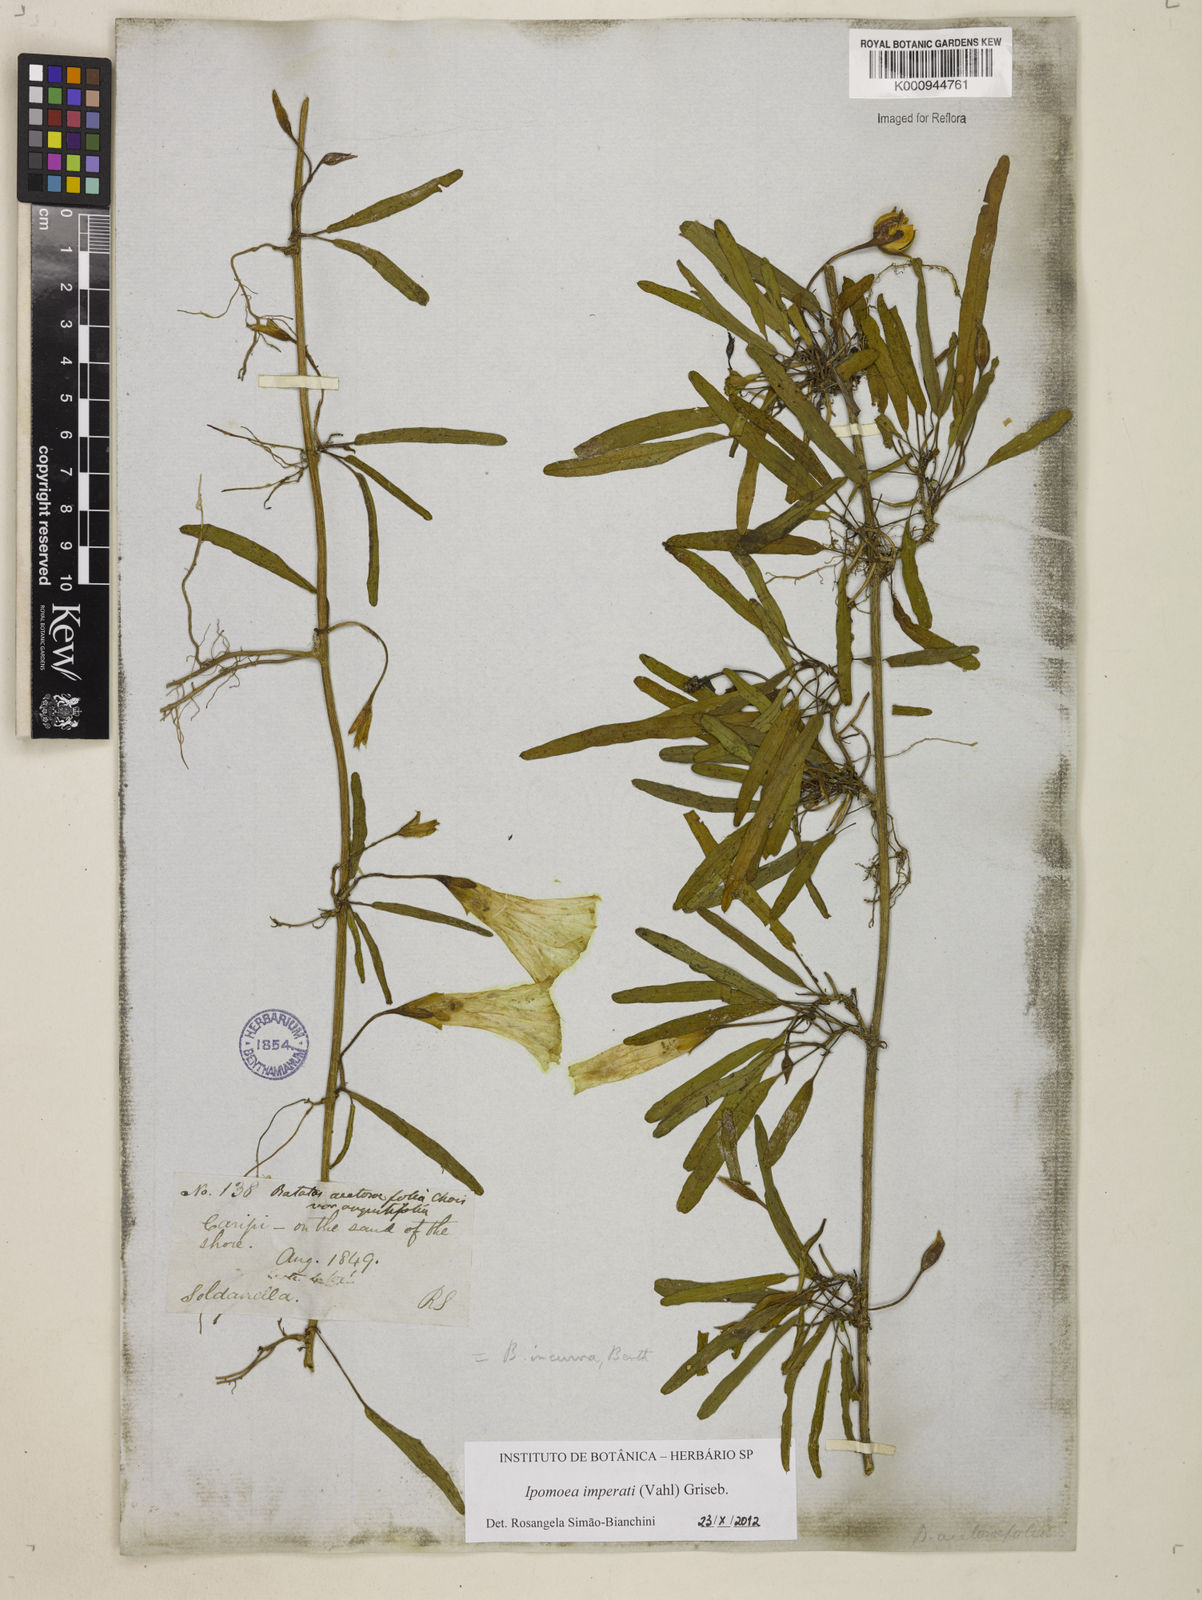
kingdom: Plantae
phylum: Tracheophyta
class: Magnoliopsida
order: Solanales
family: Convolvulaceae
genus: Ipomoea
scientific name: Ipomoea
